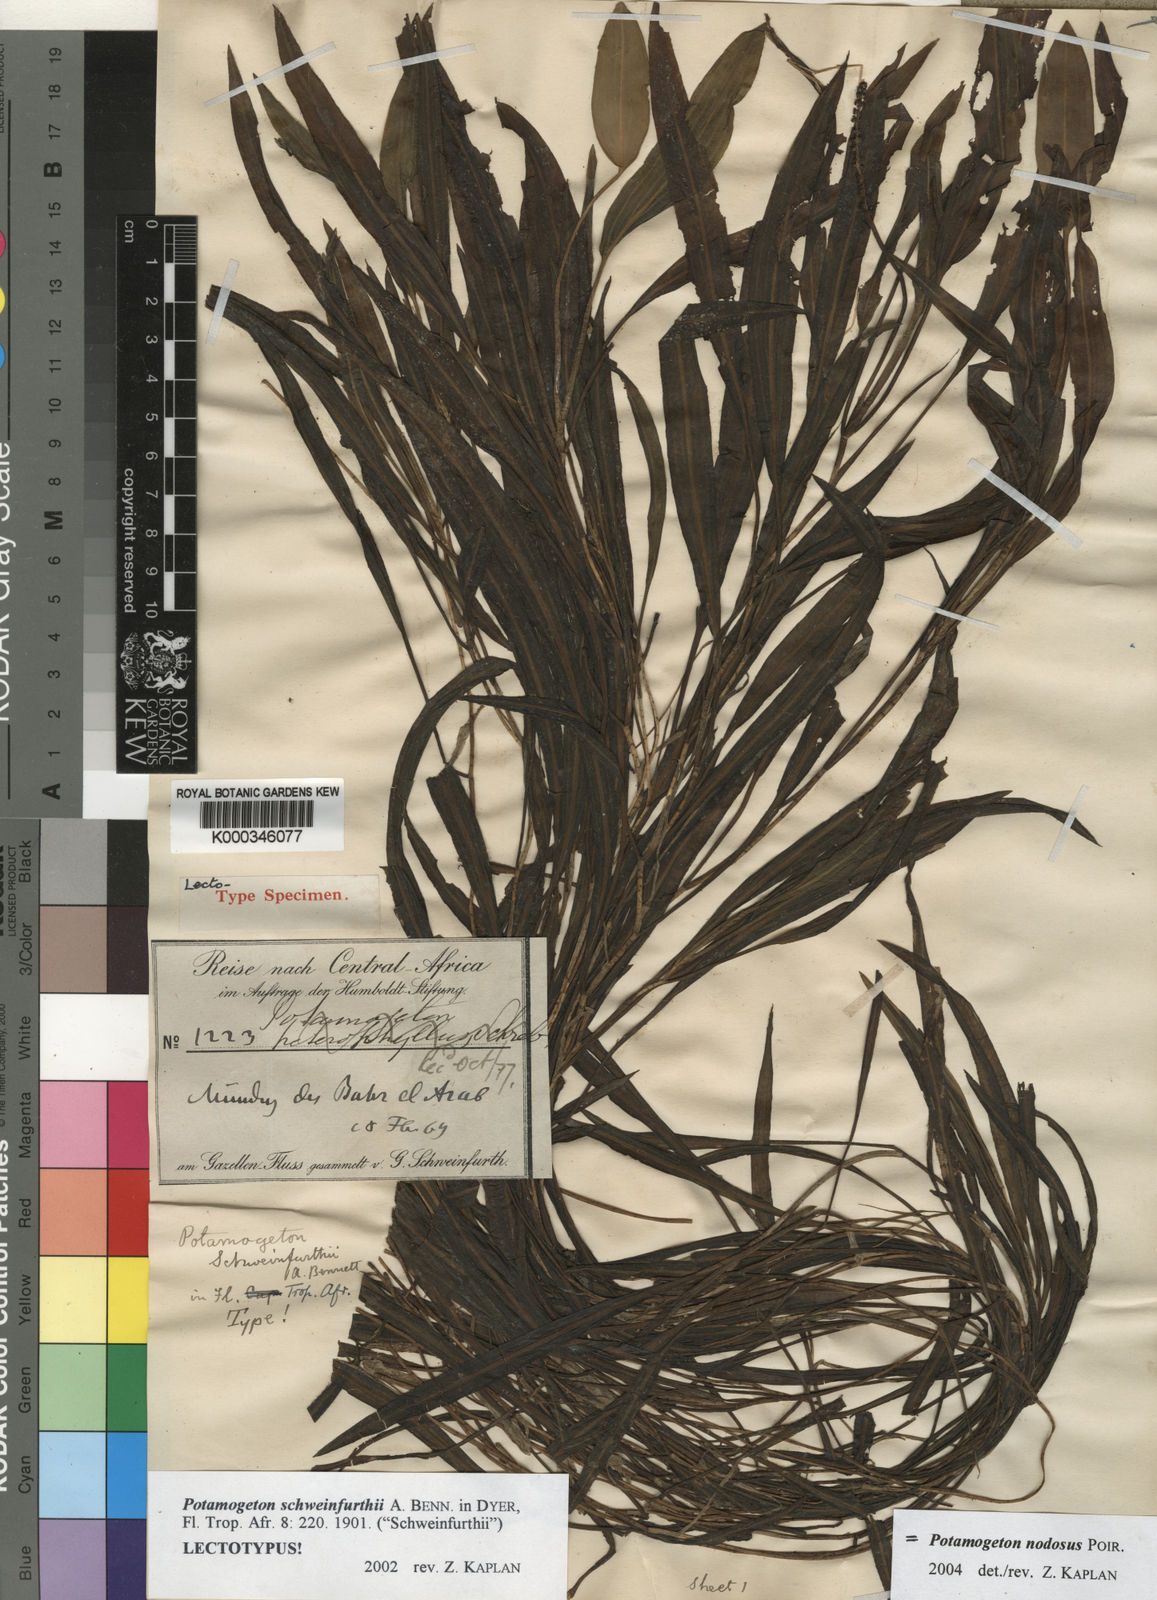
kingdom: Plantae
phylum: Tracheophyta
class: Liliopsida
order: Alismatales
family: Potamogetonaceae
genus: Potamogeton
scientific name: Potamogeton schweinfurthii
